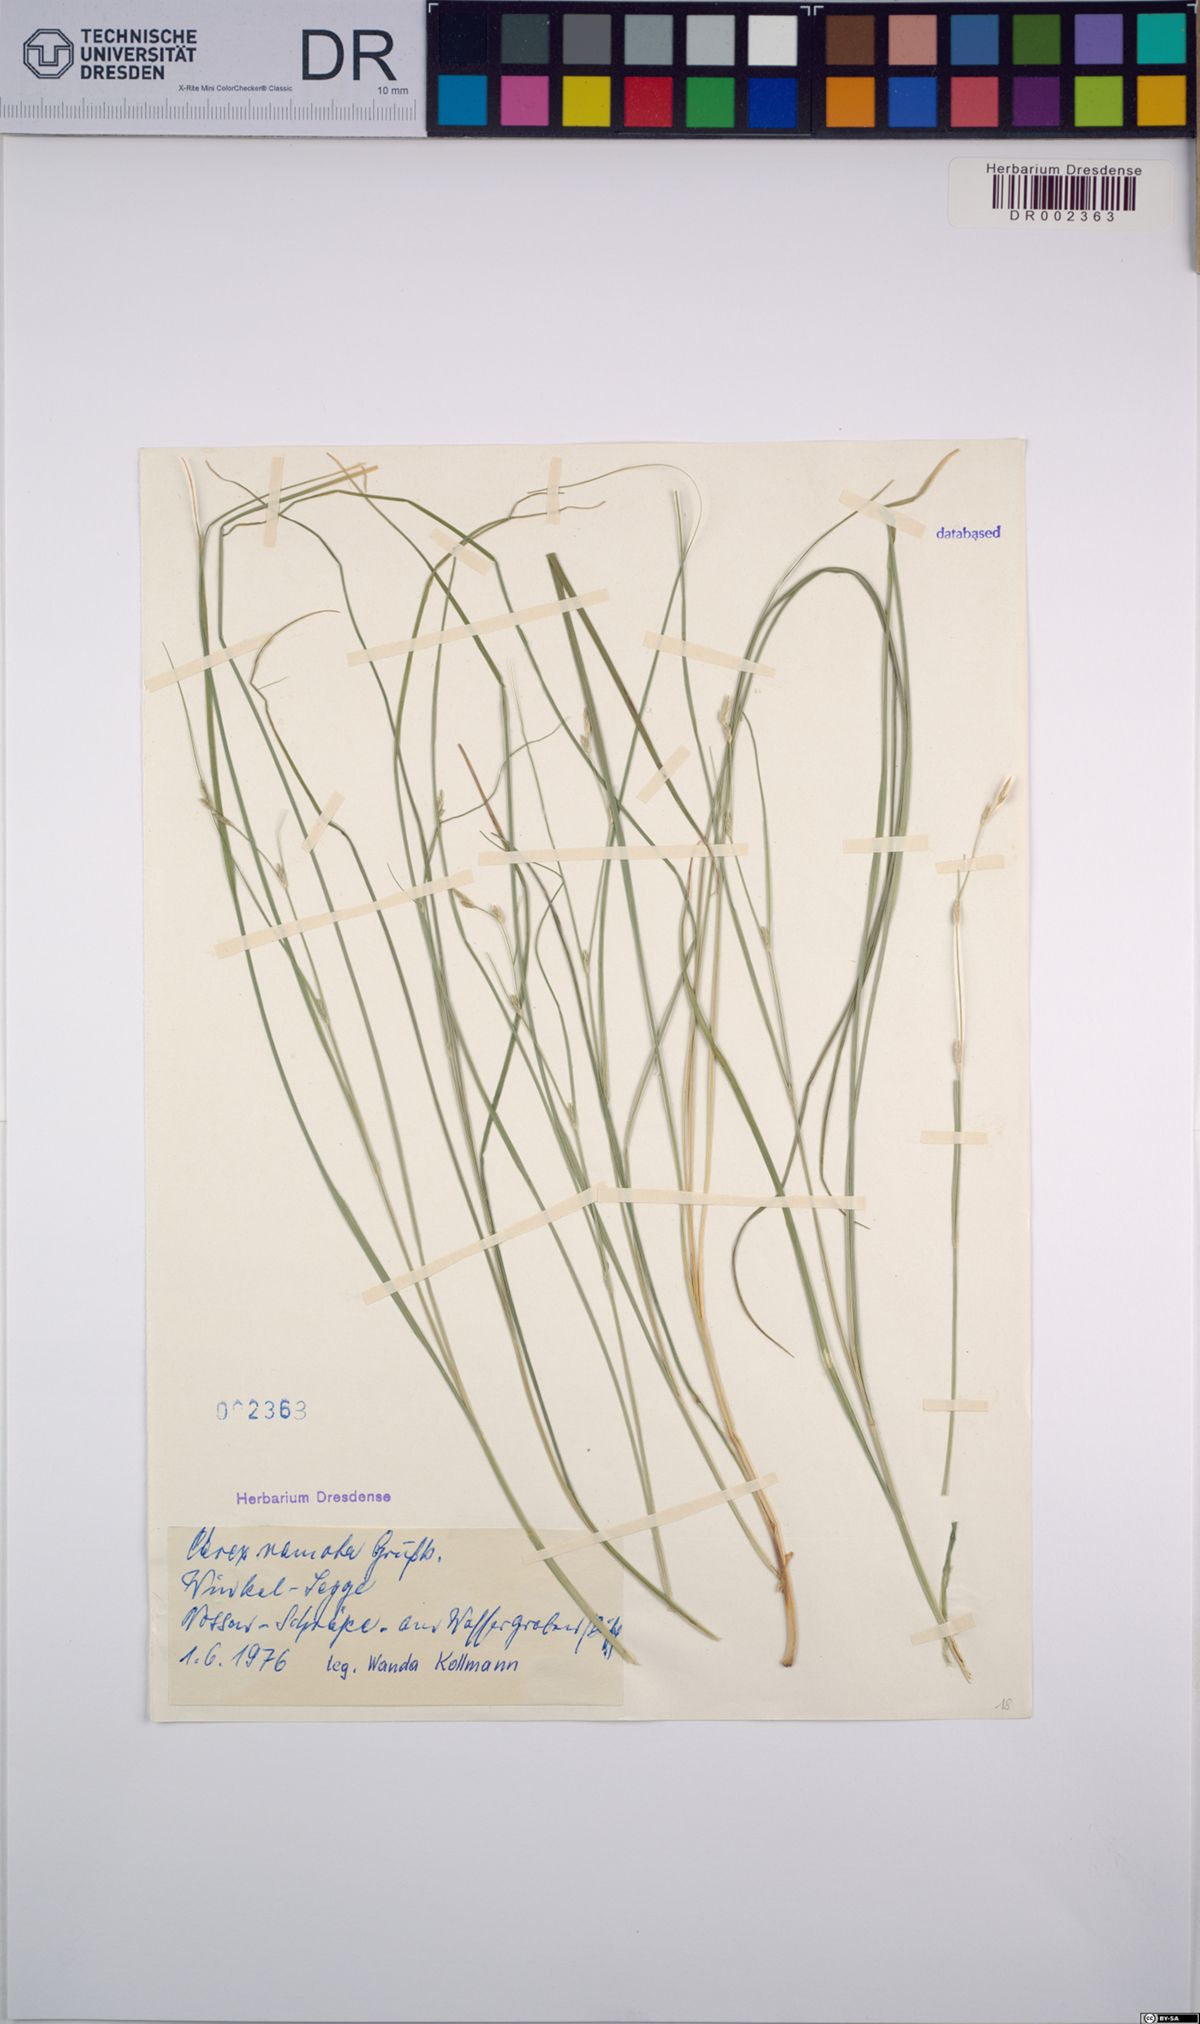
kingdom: Plantae
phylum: Tracheophyta
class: Liliopsida
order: Poales
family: Cyperaceae
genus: Carex
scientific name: Carex remota
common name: Remote sedge
